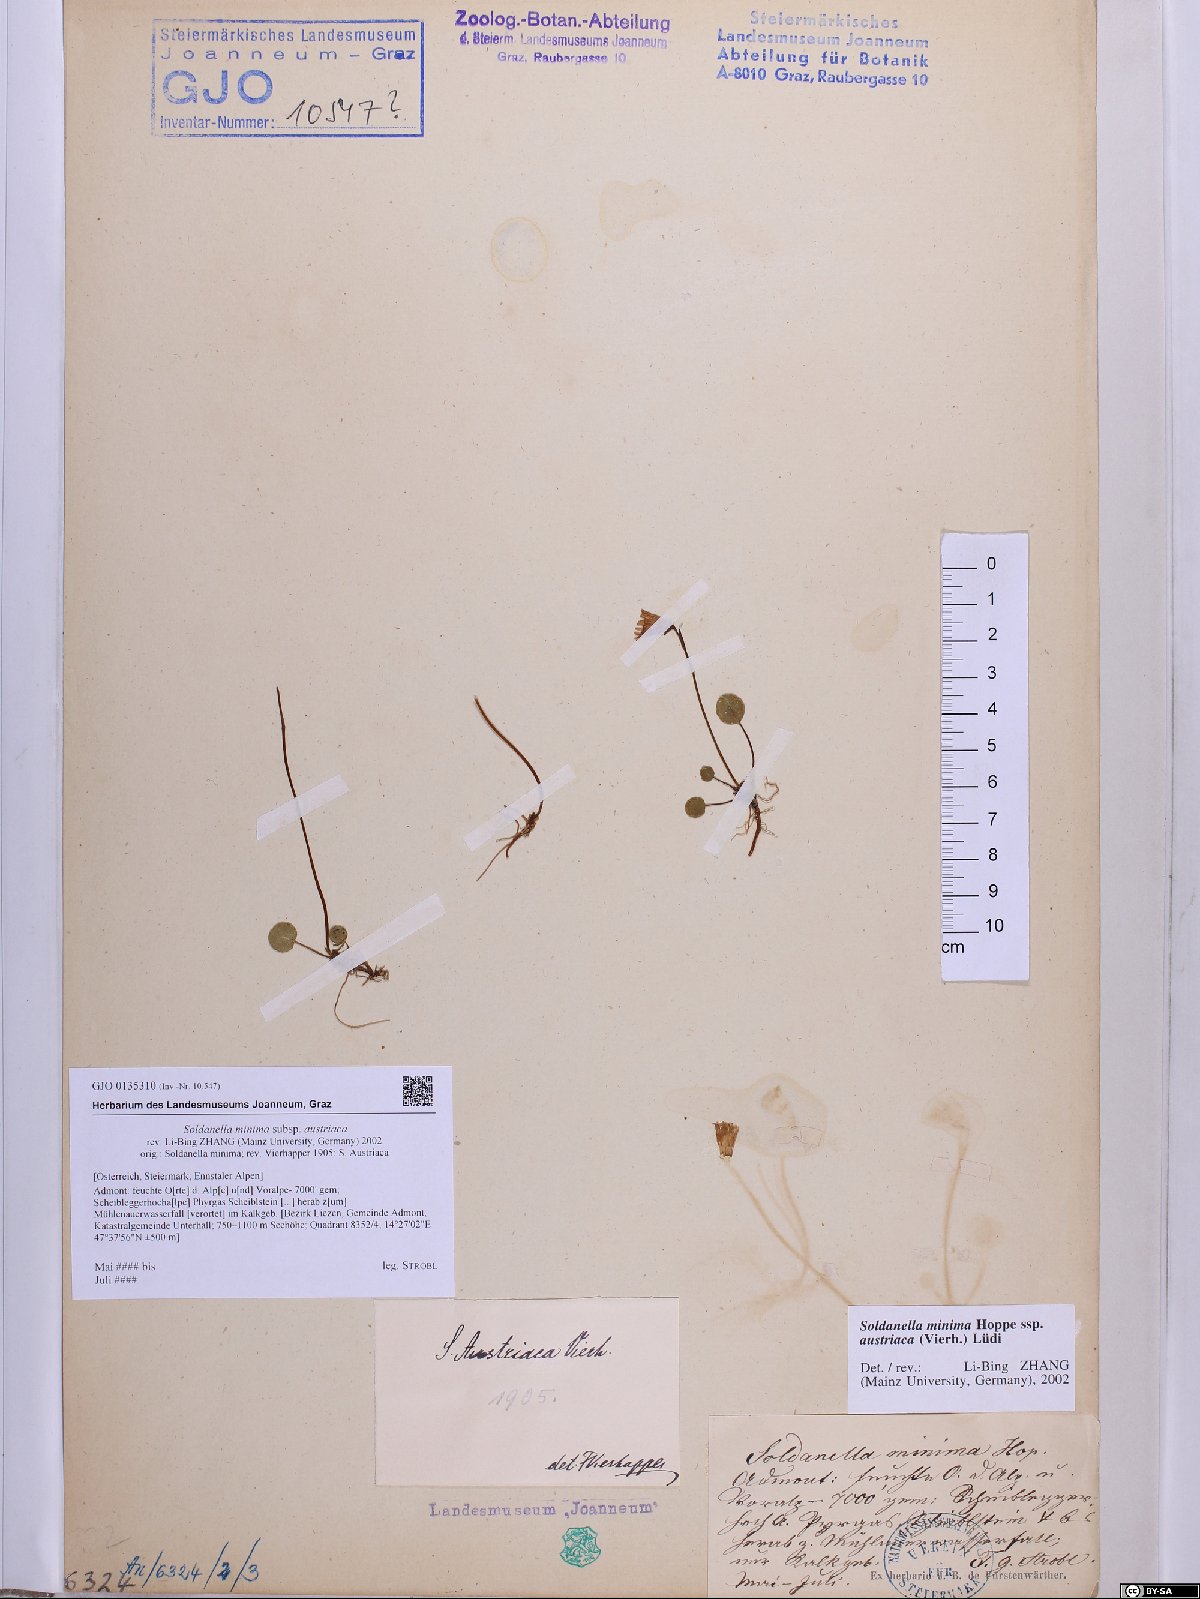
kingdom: Plantae
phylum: Tracheophyta
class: Magnoliopsida
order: Ericales
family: Primulaceae
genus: Soldanella
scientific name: Soldanella austriaca
